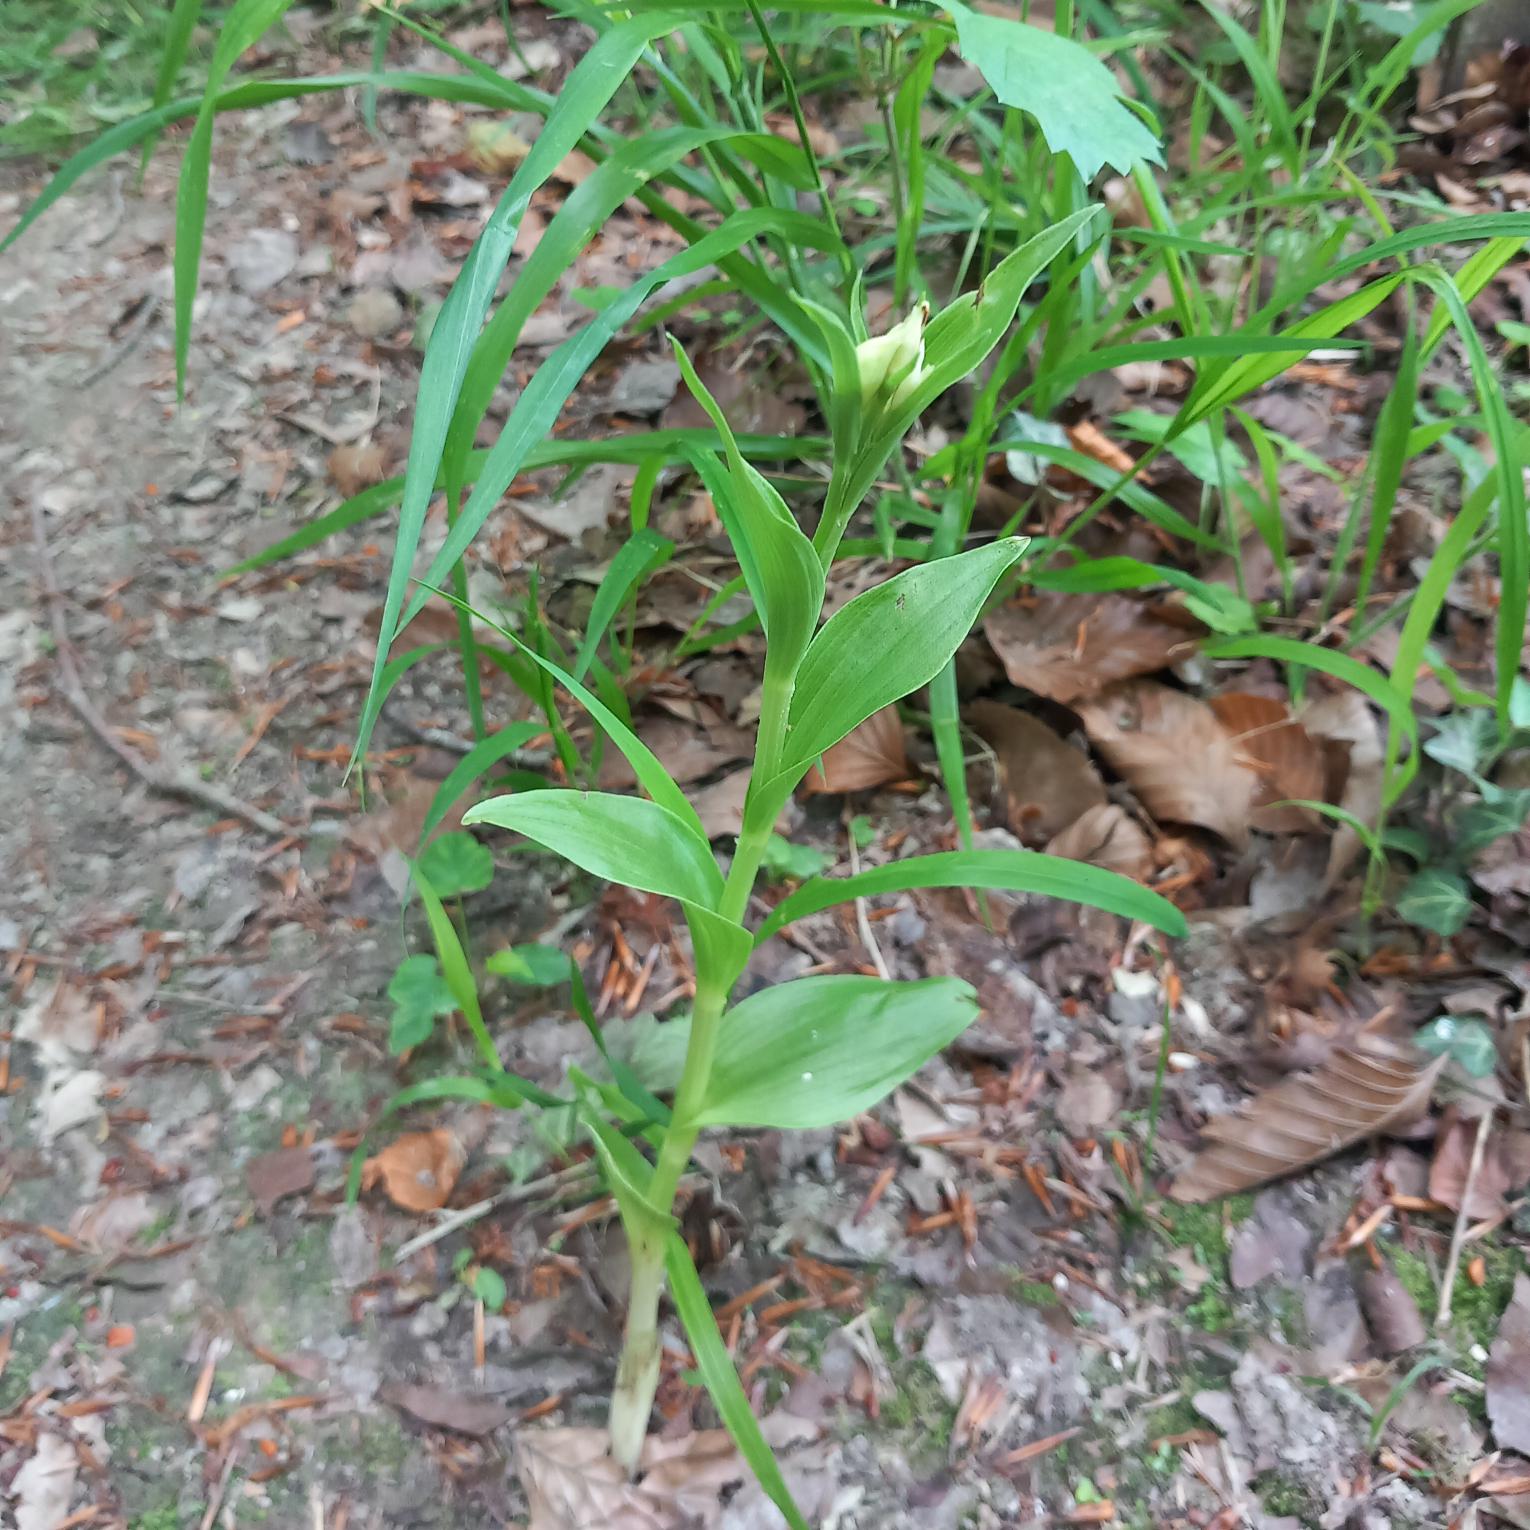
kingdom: Plantae
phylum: Tracheophyta
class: Liliopsida
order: Asparagales
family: Orchidaceae
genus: Cephalanthera
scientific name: Cephalanthera damasonium
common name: Hvidgul skovlilje
